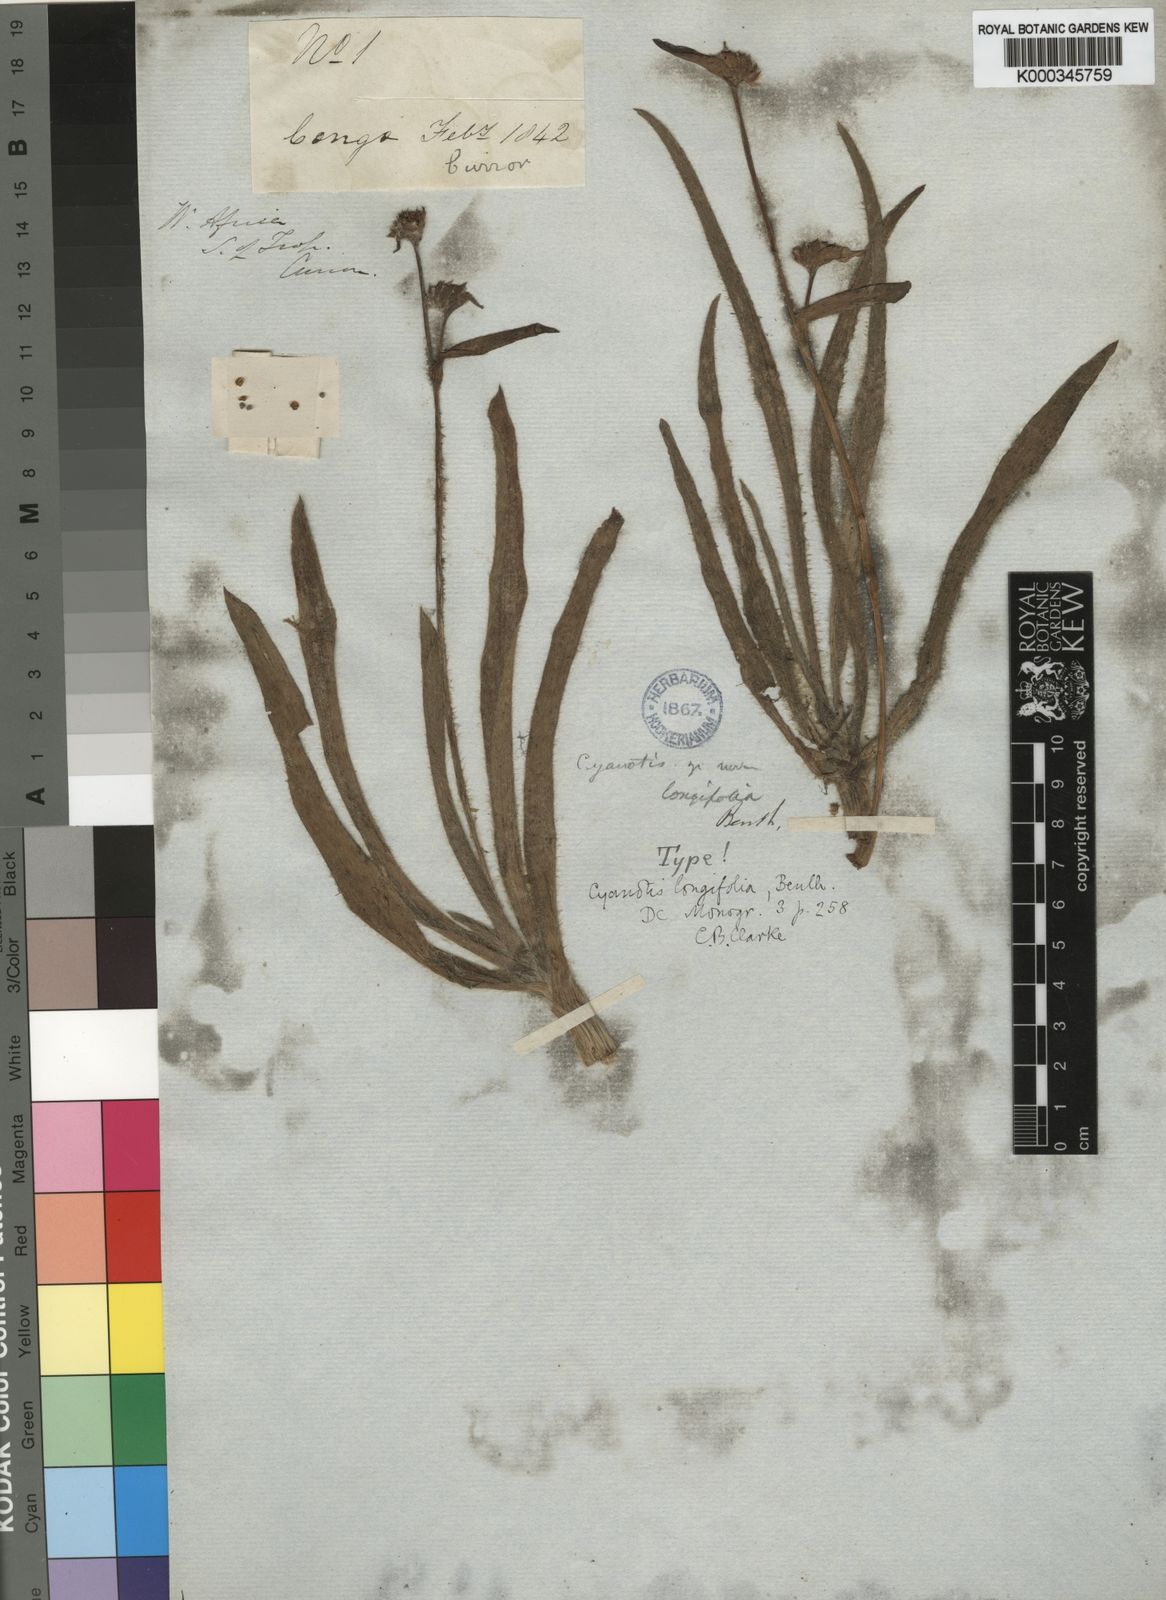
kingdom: Plantae
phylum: Tracheophyta
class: Liliopsida
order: Commelinales
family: Commelinaceae
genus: Cyanotis
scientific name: Cyanotis longifolia
